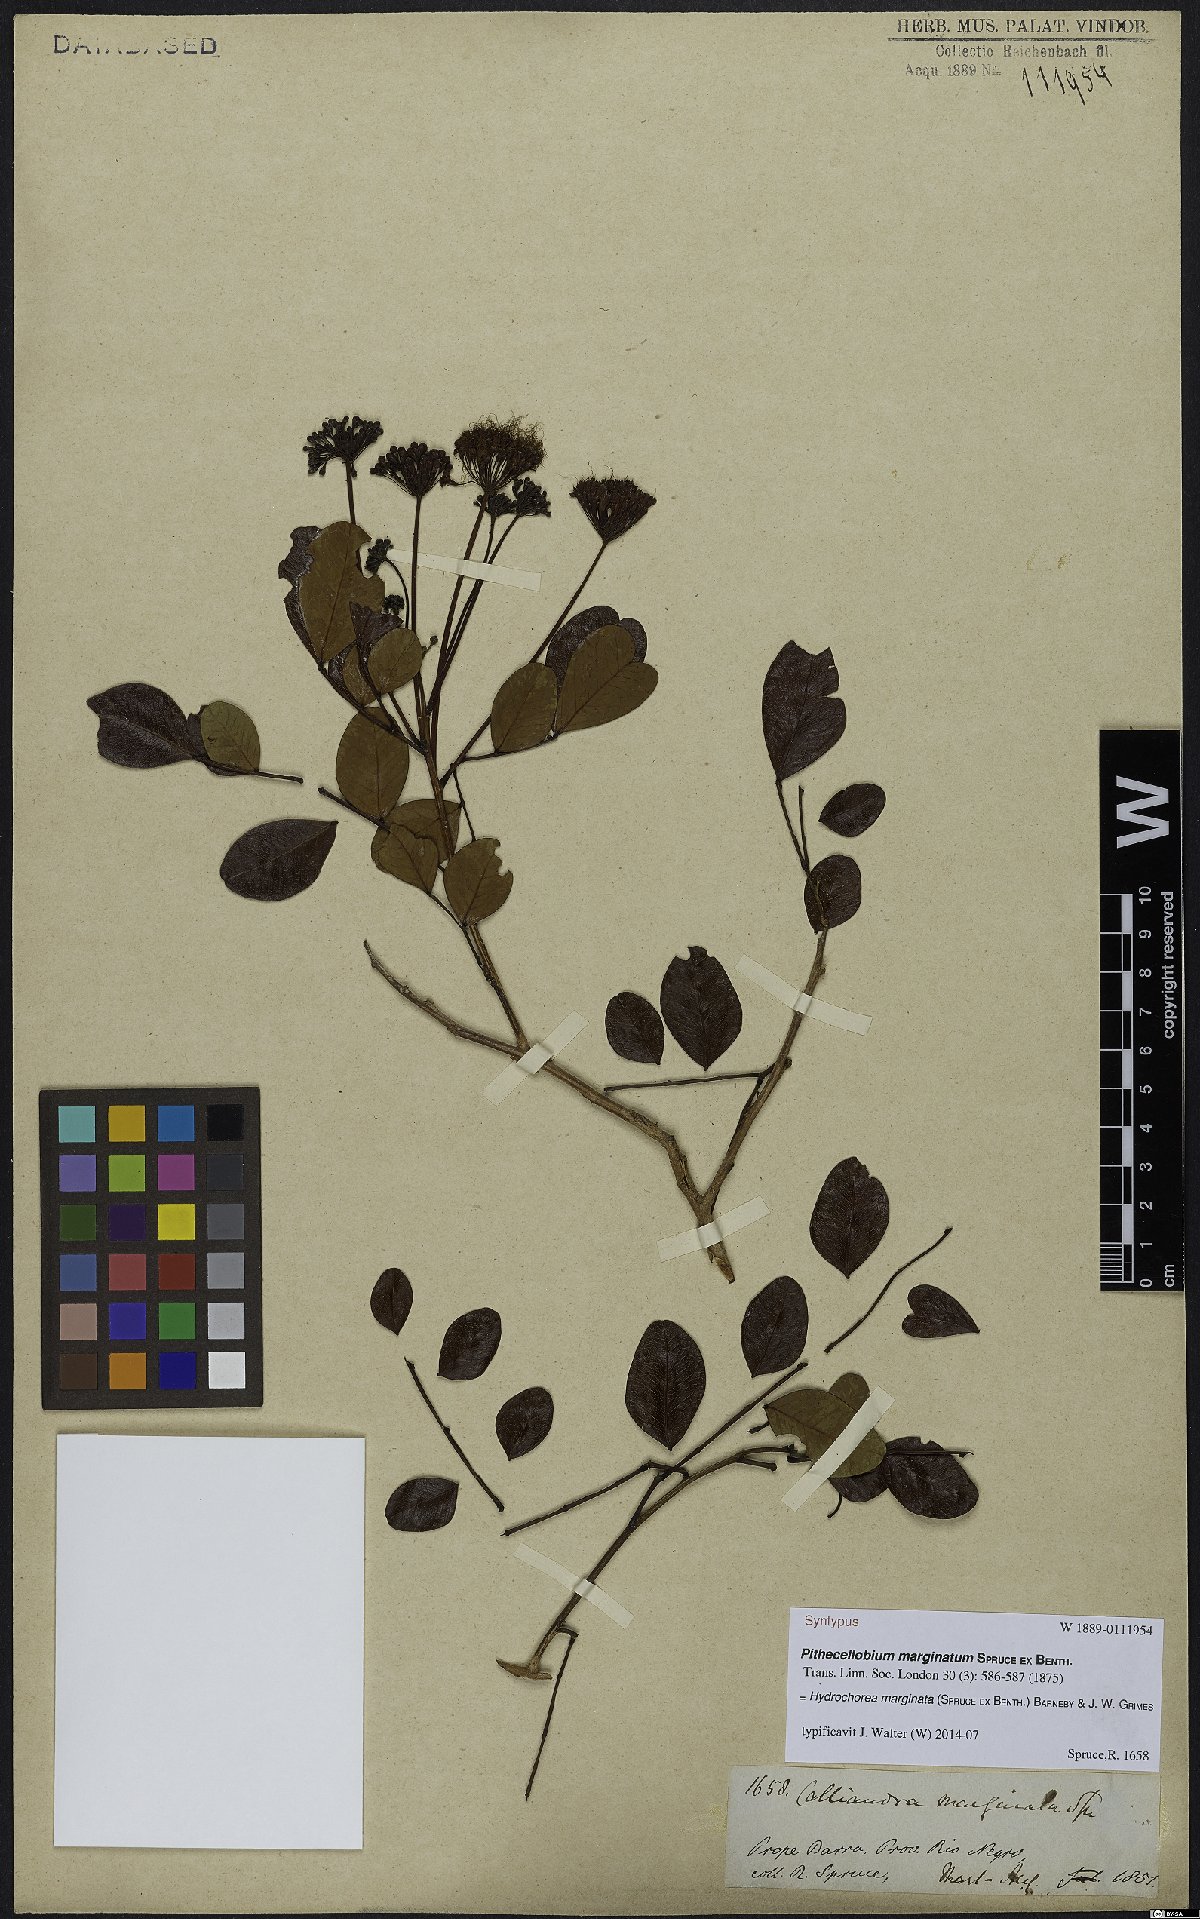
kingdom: Plantae
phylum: Tracheophyta
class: Magnoliopsida
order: Fabales
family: Fabaceae
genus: Hydrochorea
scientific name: Hydrochorea marginata
